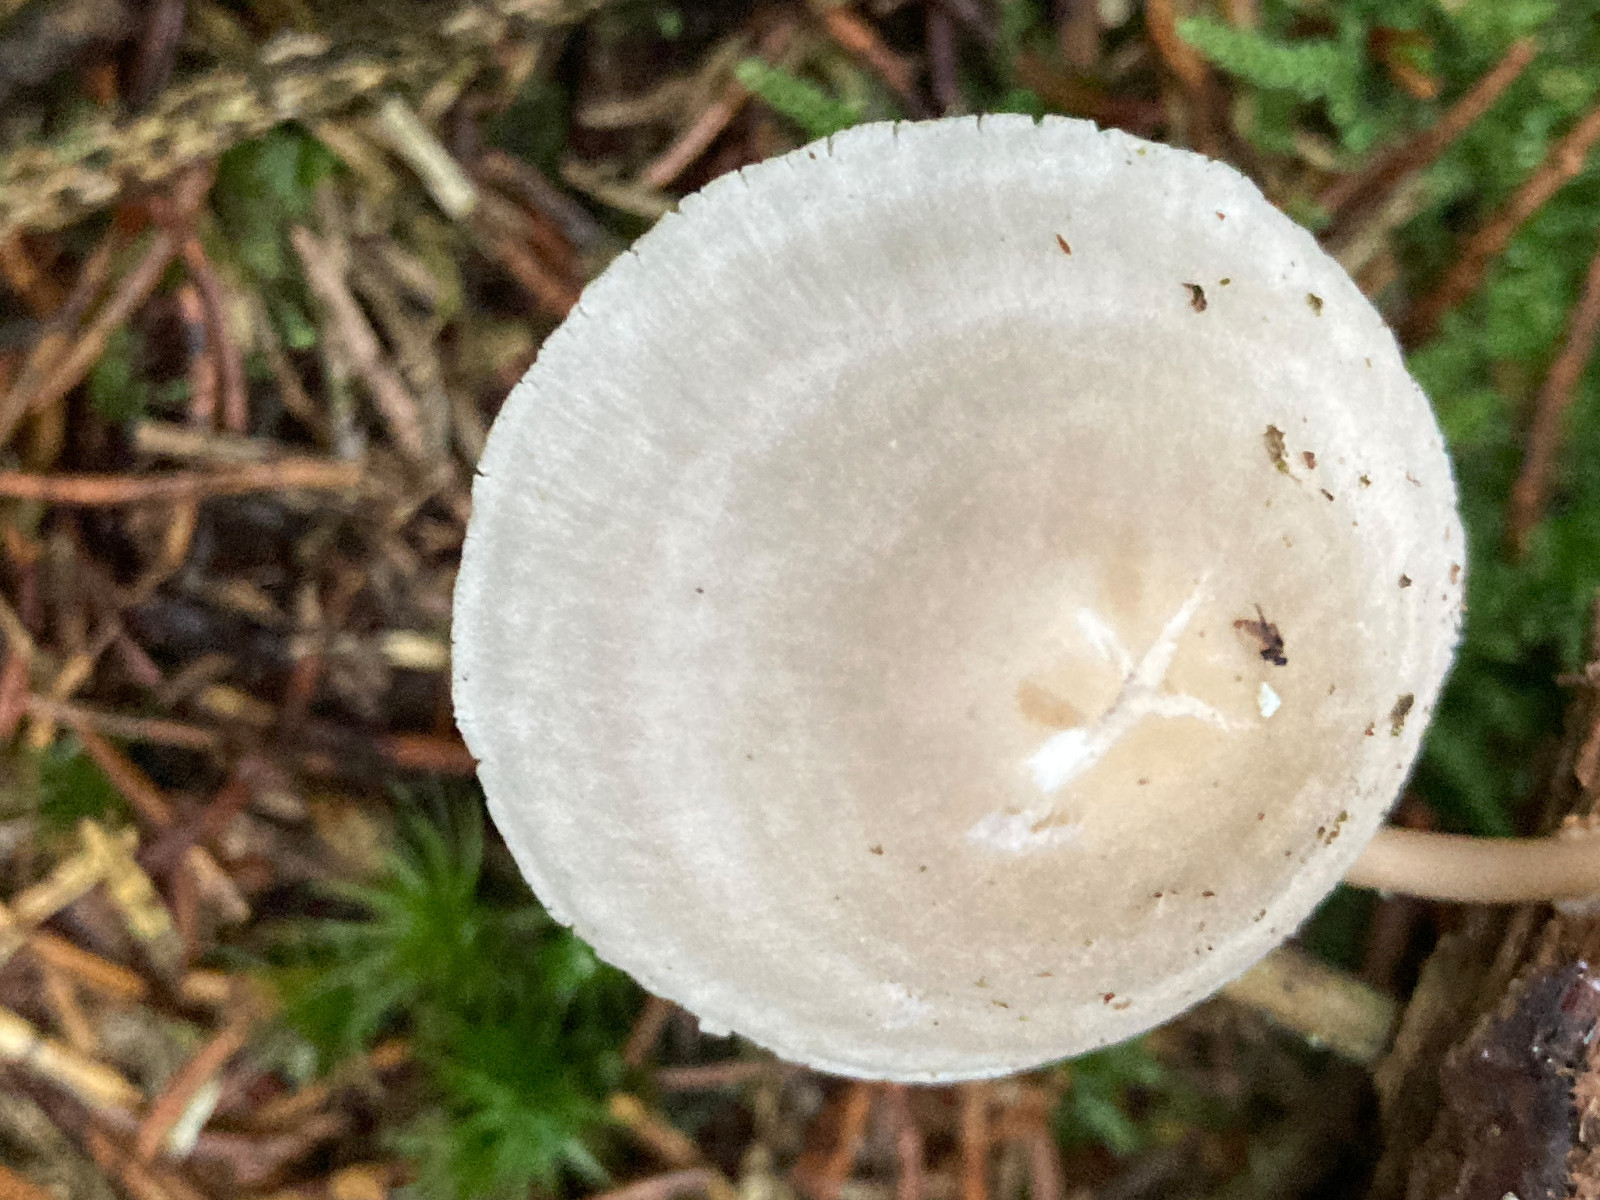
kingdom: Fungi
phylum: Basidiomycota
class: Agaricomycetes
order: Agaricales
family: Mycenaceae
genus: Mycena
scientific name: Mycena galericulata
